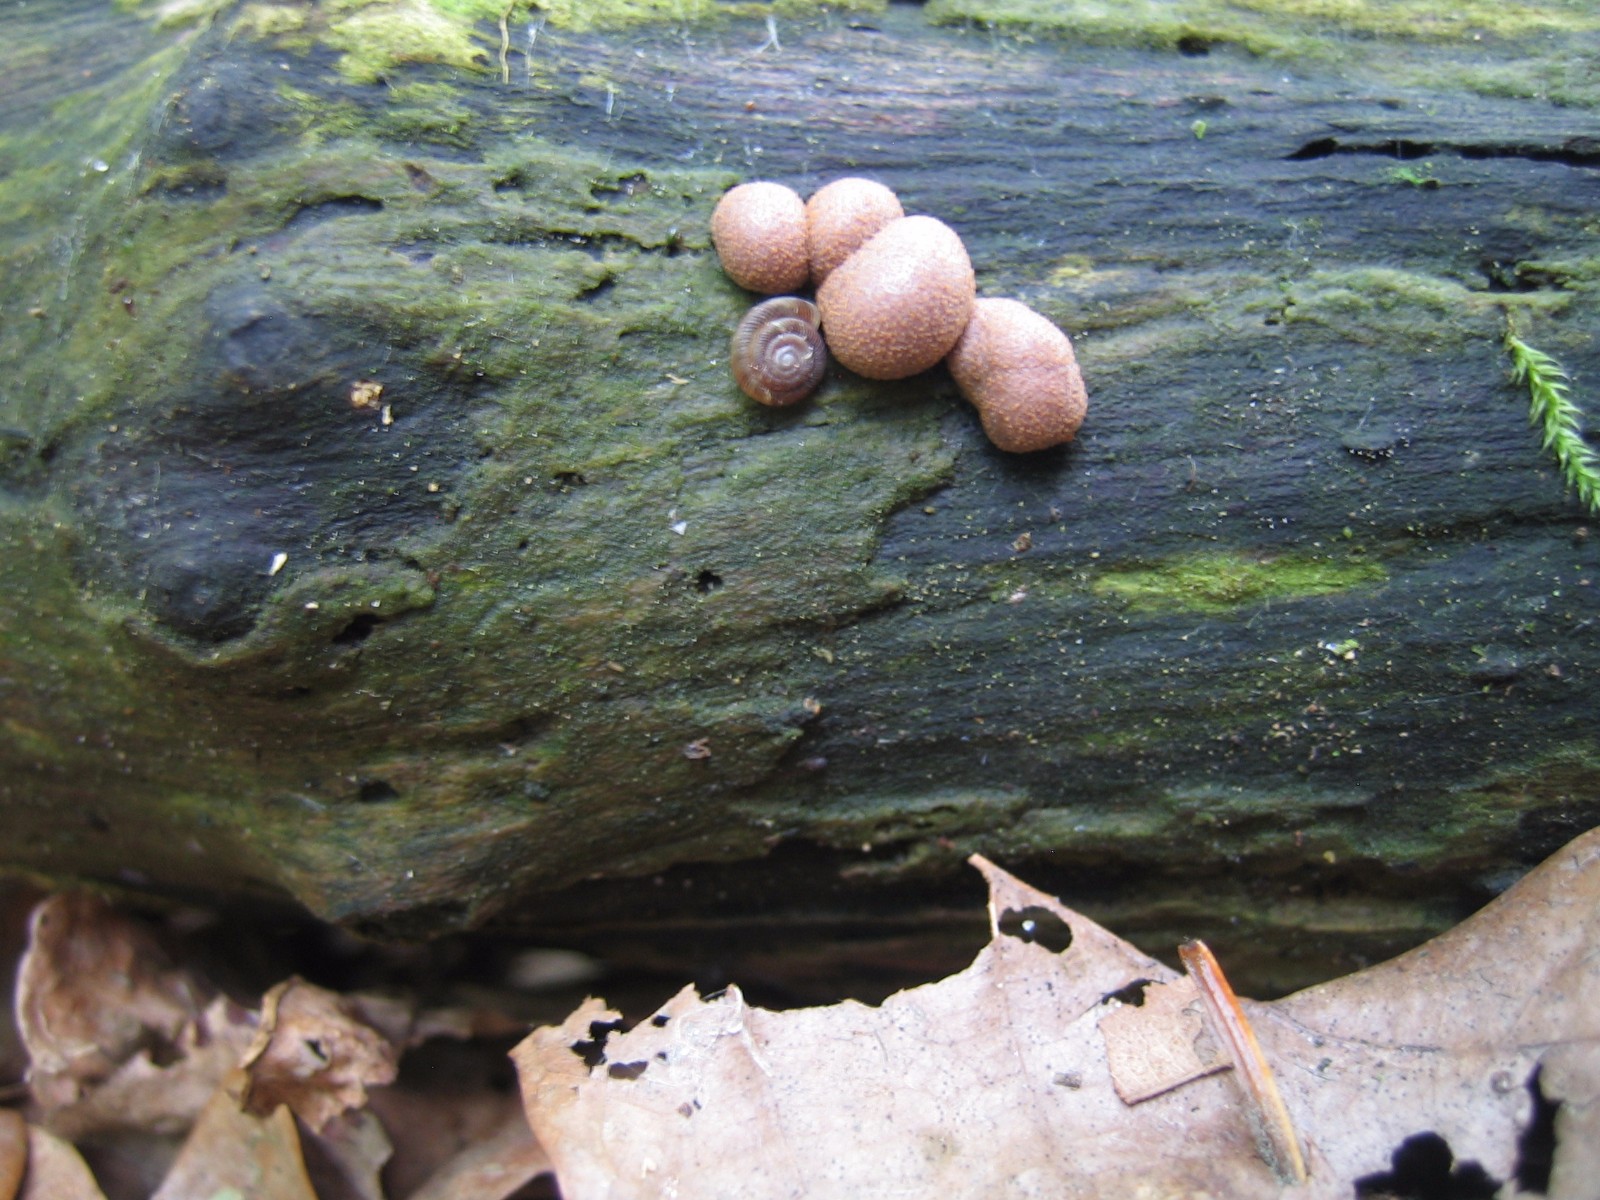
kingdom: Protozoa
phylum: Mycetozoa
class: Myxomycetes
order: Cribrariales
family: Tubiferaceae
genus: Lycogala
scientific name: Lycogala epidendrum
